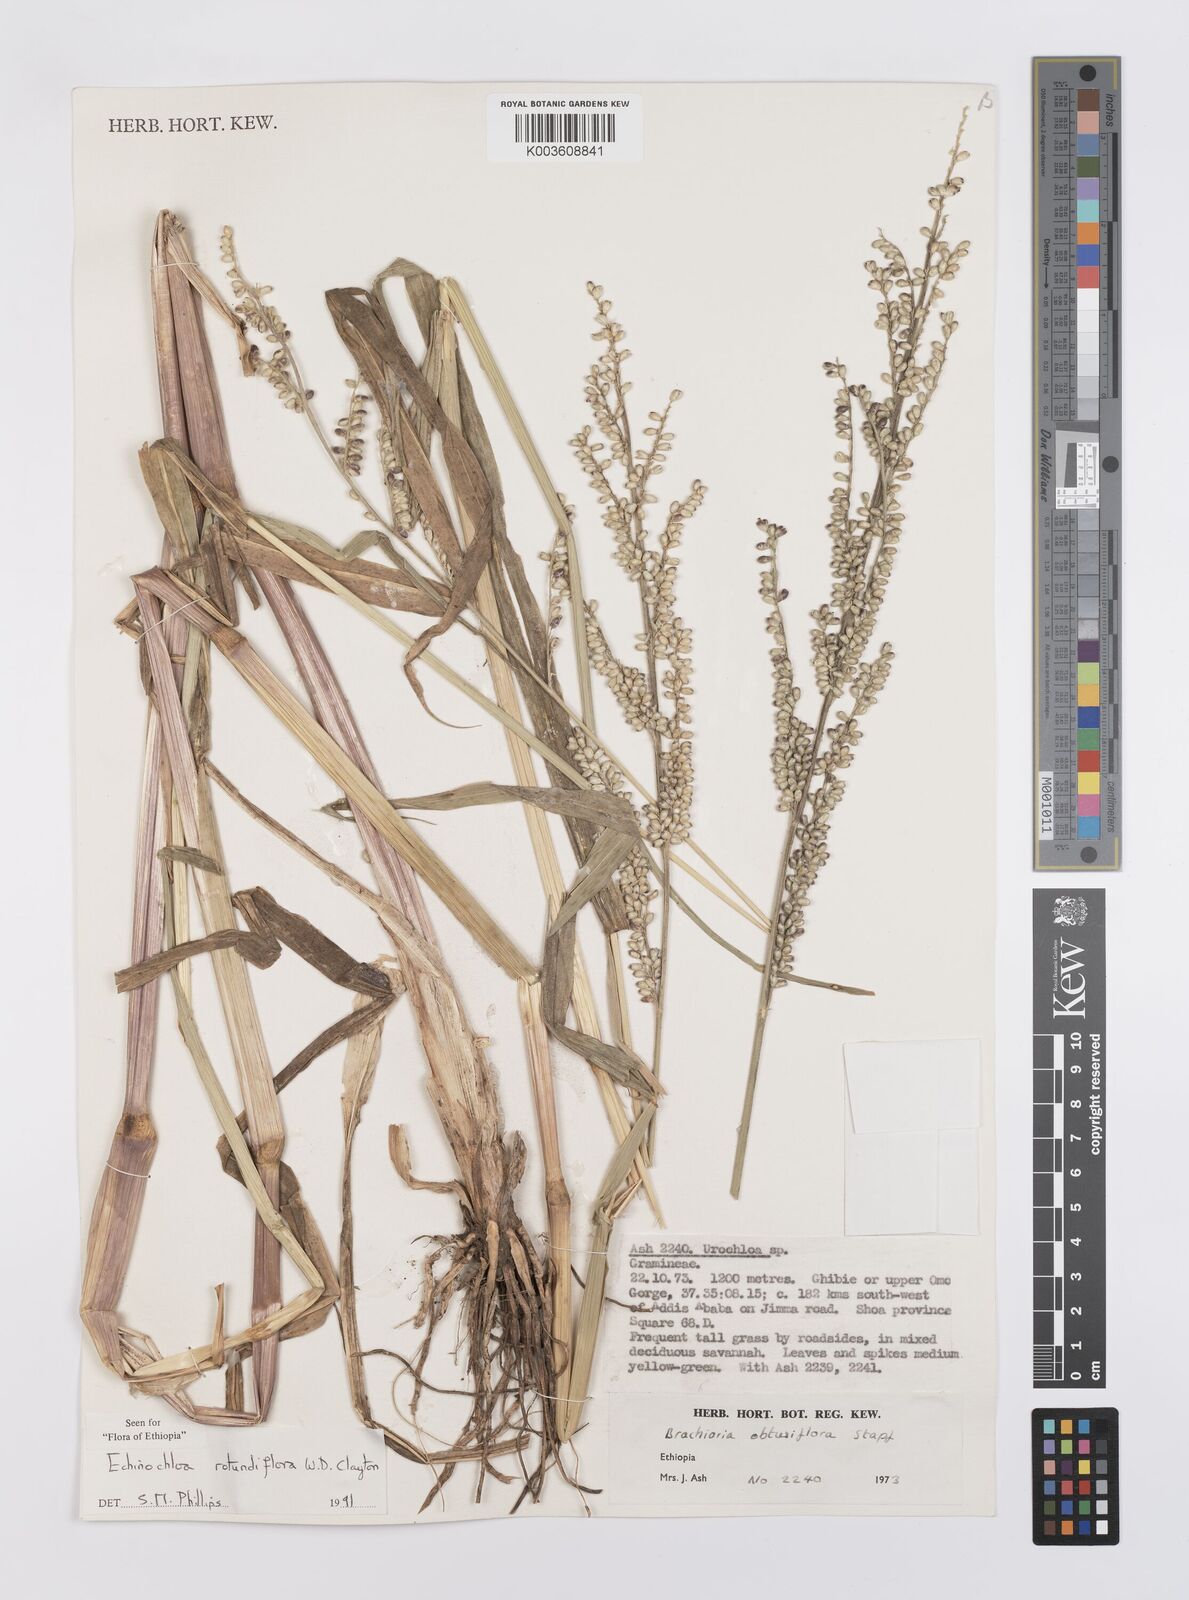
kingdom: Plantae
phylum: Tracheophyta
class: Liliopsida
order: Poales
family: Poaceae
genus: Echinochloa
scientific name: Echinochloa rotundiflora
